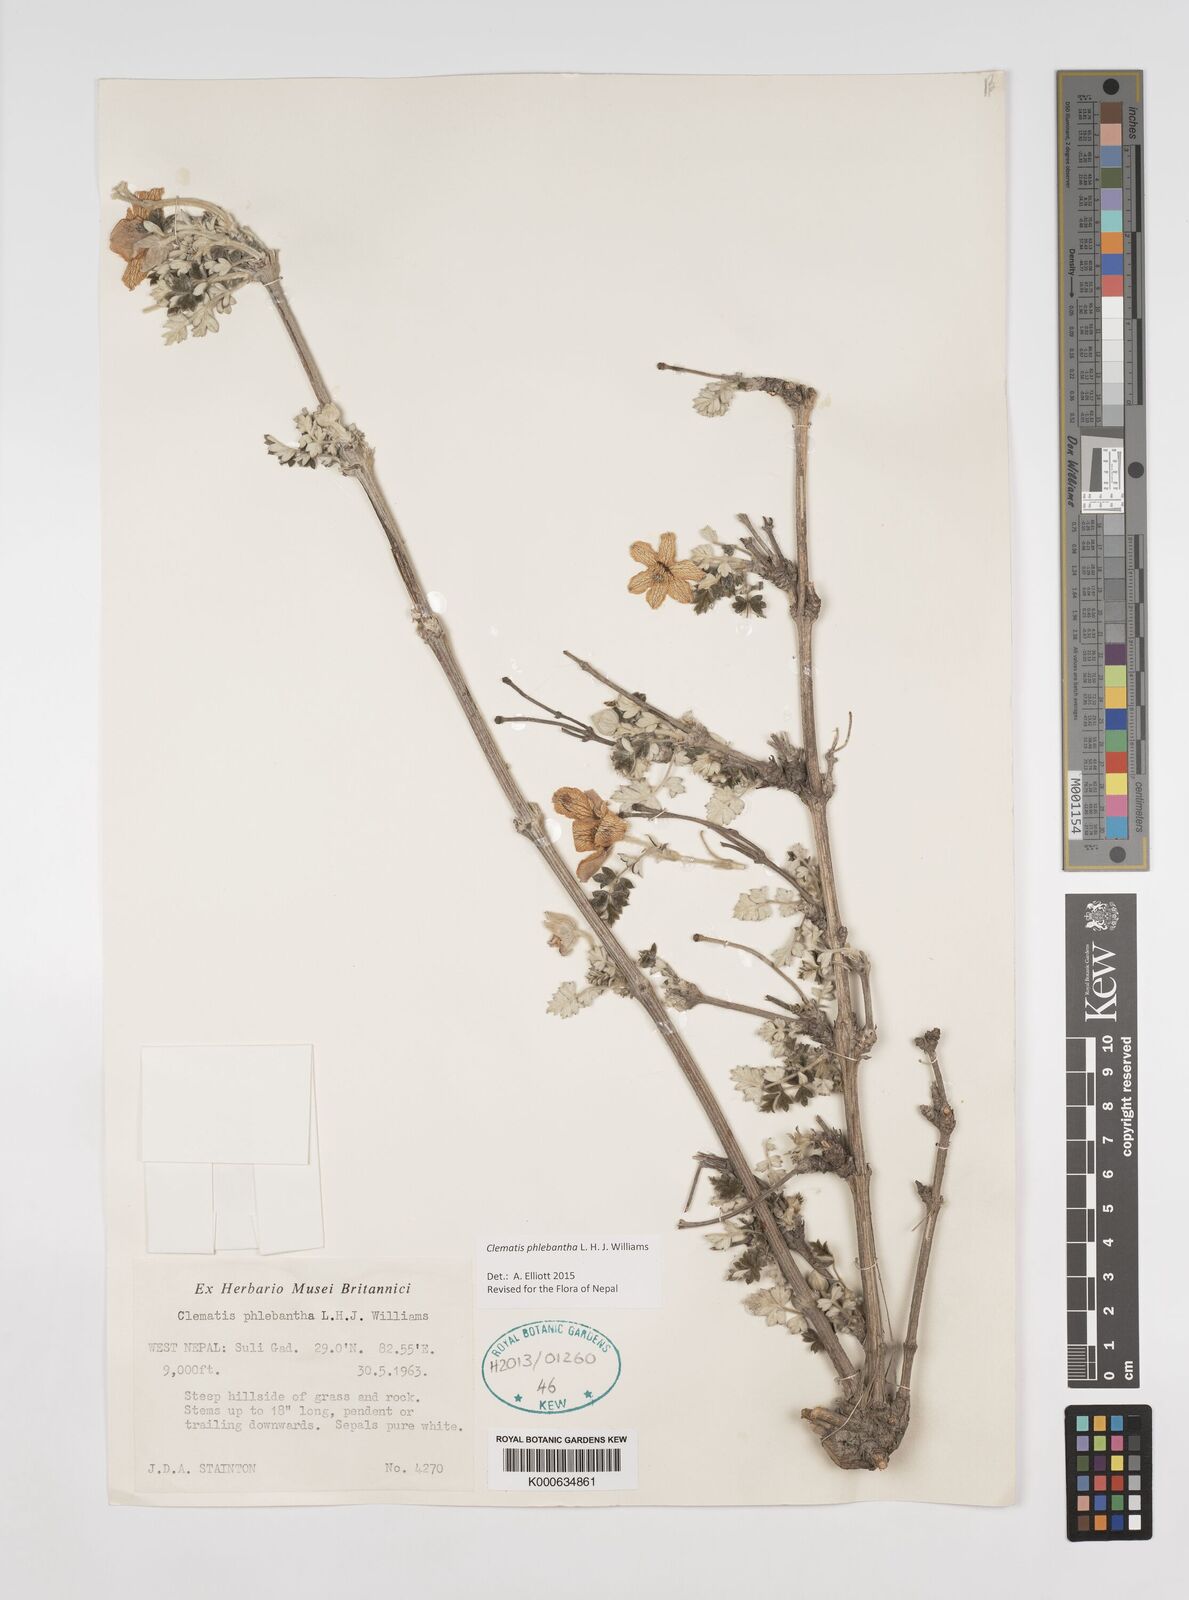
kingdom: Plantae
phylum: Tracheophyta
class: Magnoliopsida
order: Ranunculales
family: Ranunculaceae
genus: Clematis
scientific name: Clematis phlebantha
